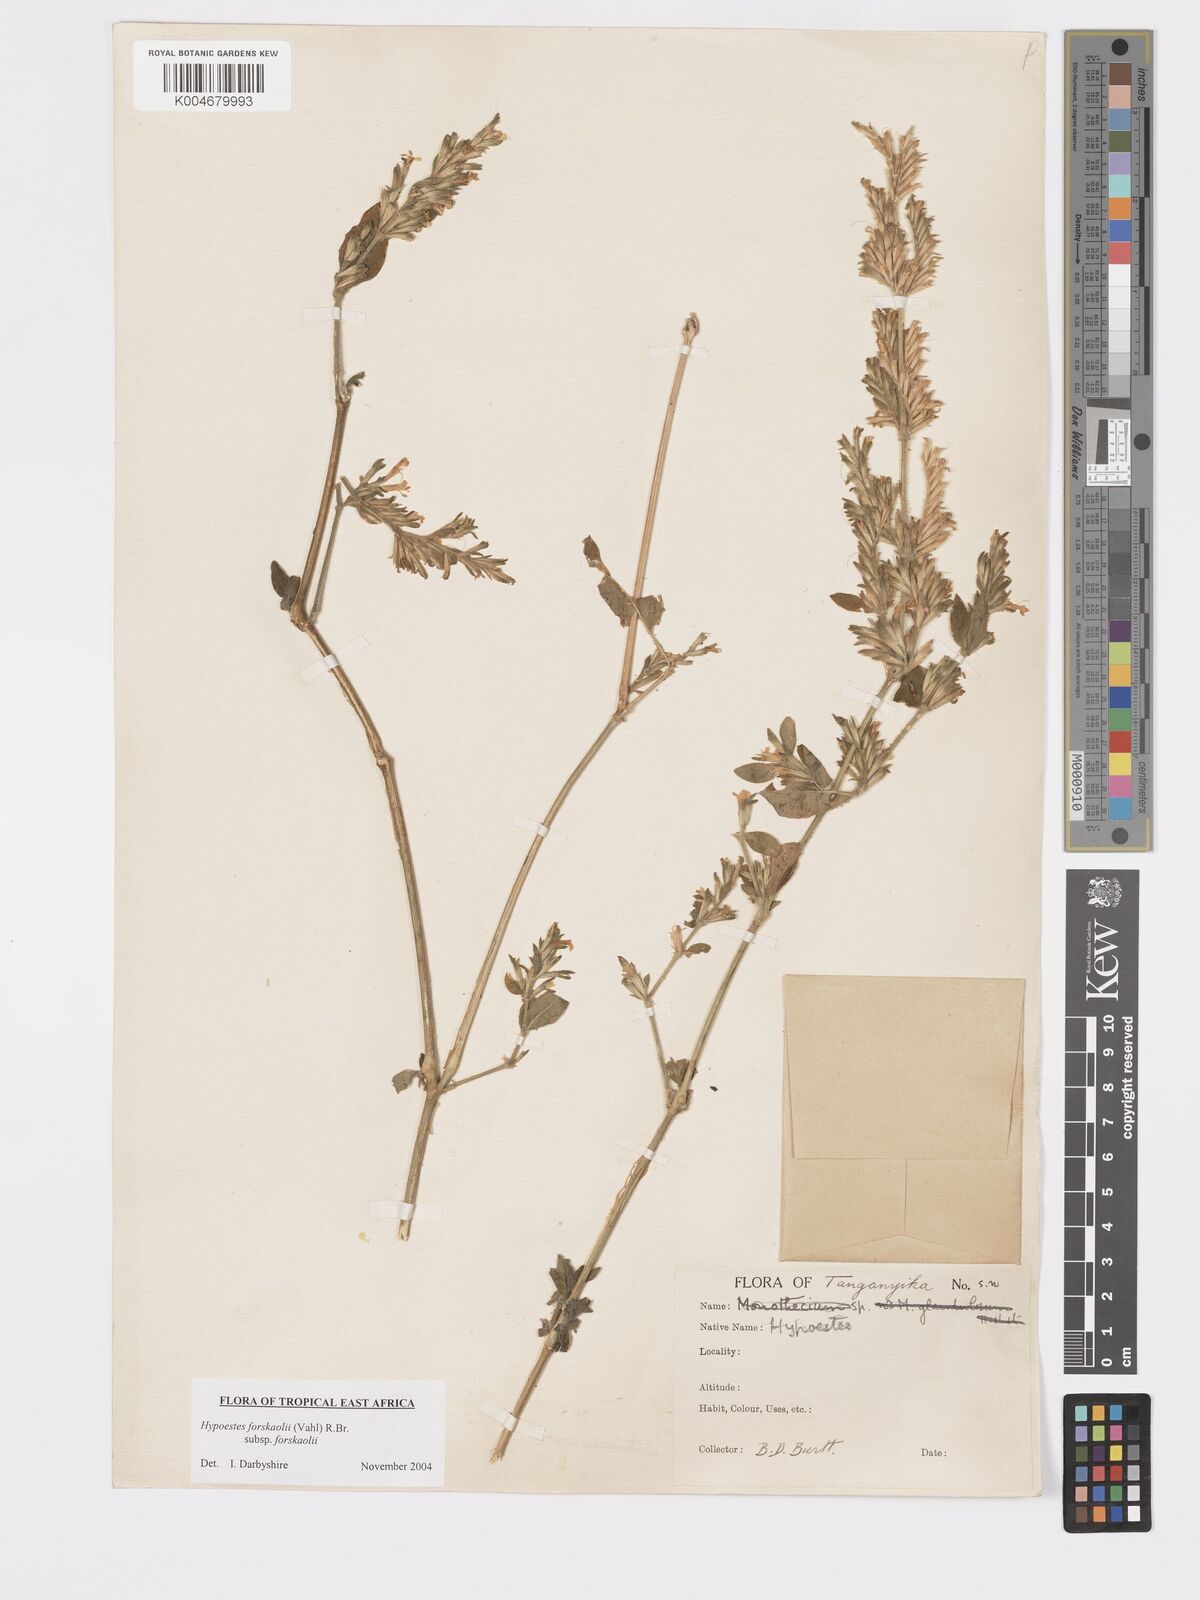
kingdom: Plantae
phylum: Tracheophyta
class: Magnoliopsida
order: Lamiales
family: Acanthaceae
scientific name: Acanthaceae
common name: Acanthaceae
